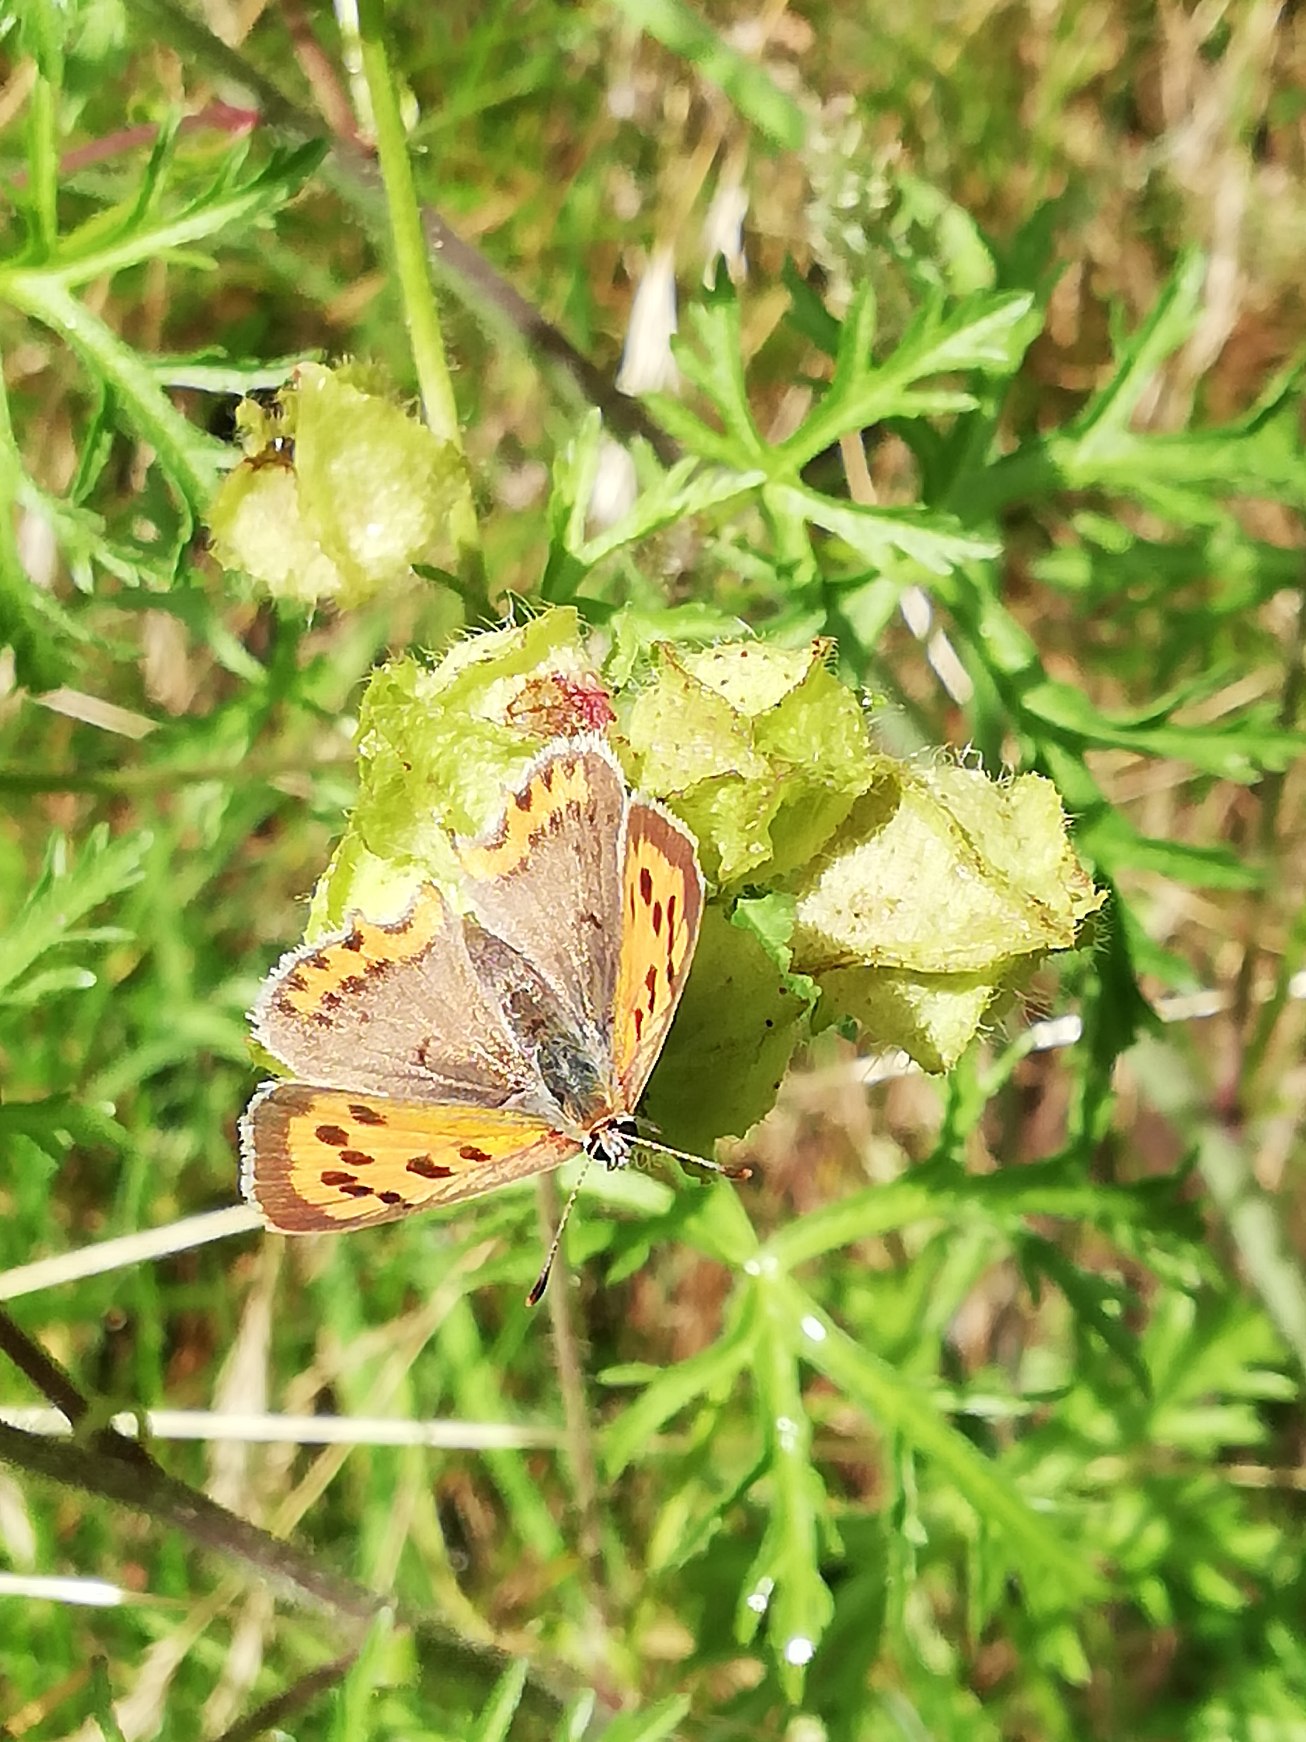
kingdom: Animalia
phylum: Arthropoda
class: Insecta
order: Lepidoptera
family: Lycaenidae
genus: Lycaena
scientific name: Lycaena phlaeas
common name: Lille ildfugl
